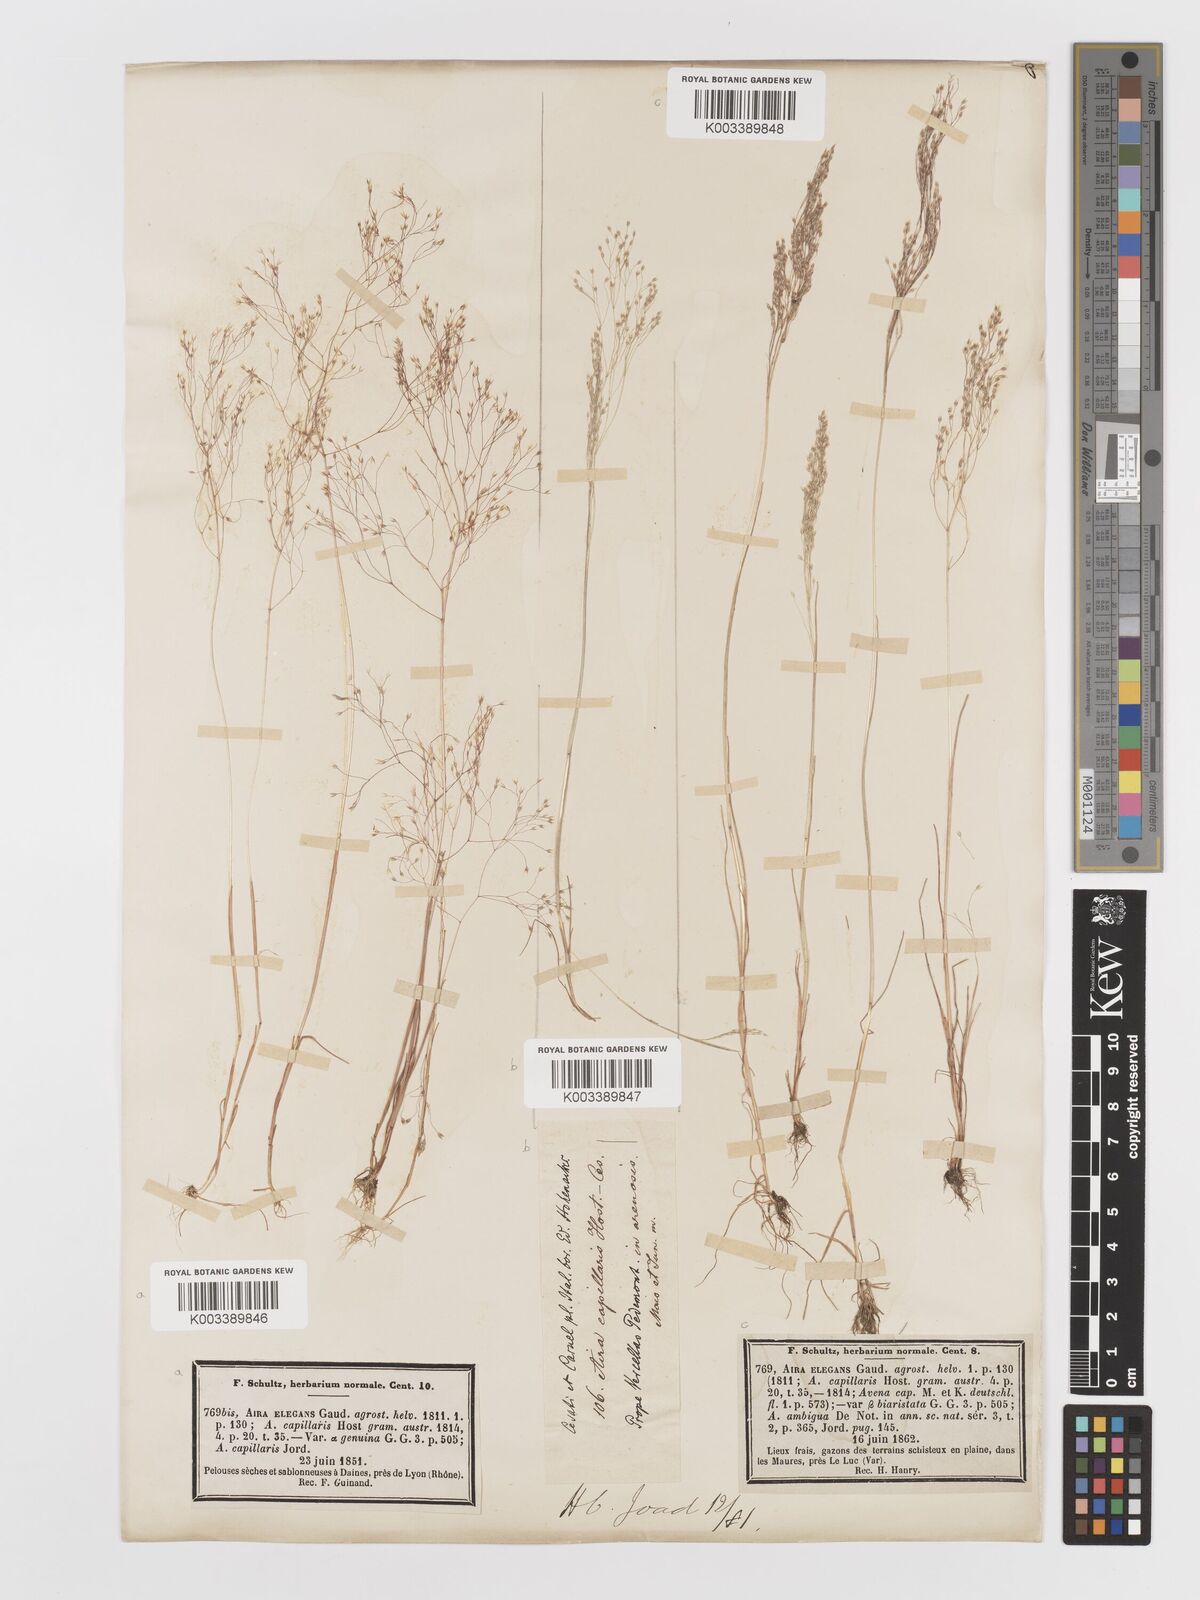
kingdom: Plantae
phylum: Tracheophyta
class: Liliopsida
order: Poales
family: Poaceae
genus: Aira
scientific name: Aira elegans
